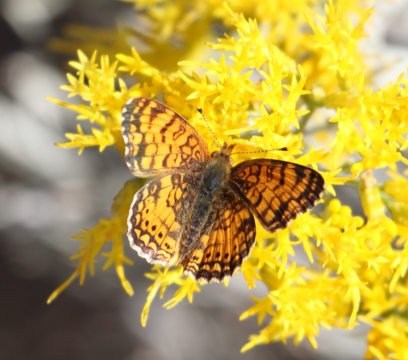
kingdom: Animalia
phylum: Arthropoda
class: Insecta
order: Lepidoptera
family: Nymphalidae
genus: Eresia
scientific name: Eresia aveyrona
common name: Mylitta Crescent
